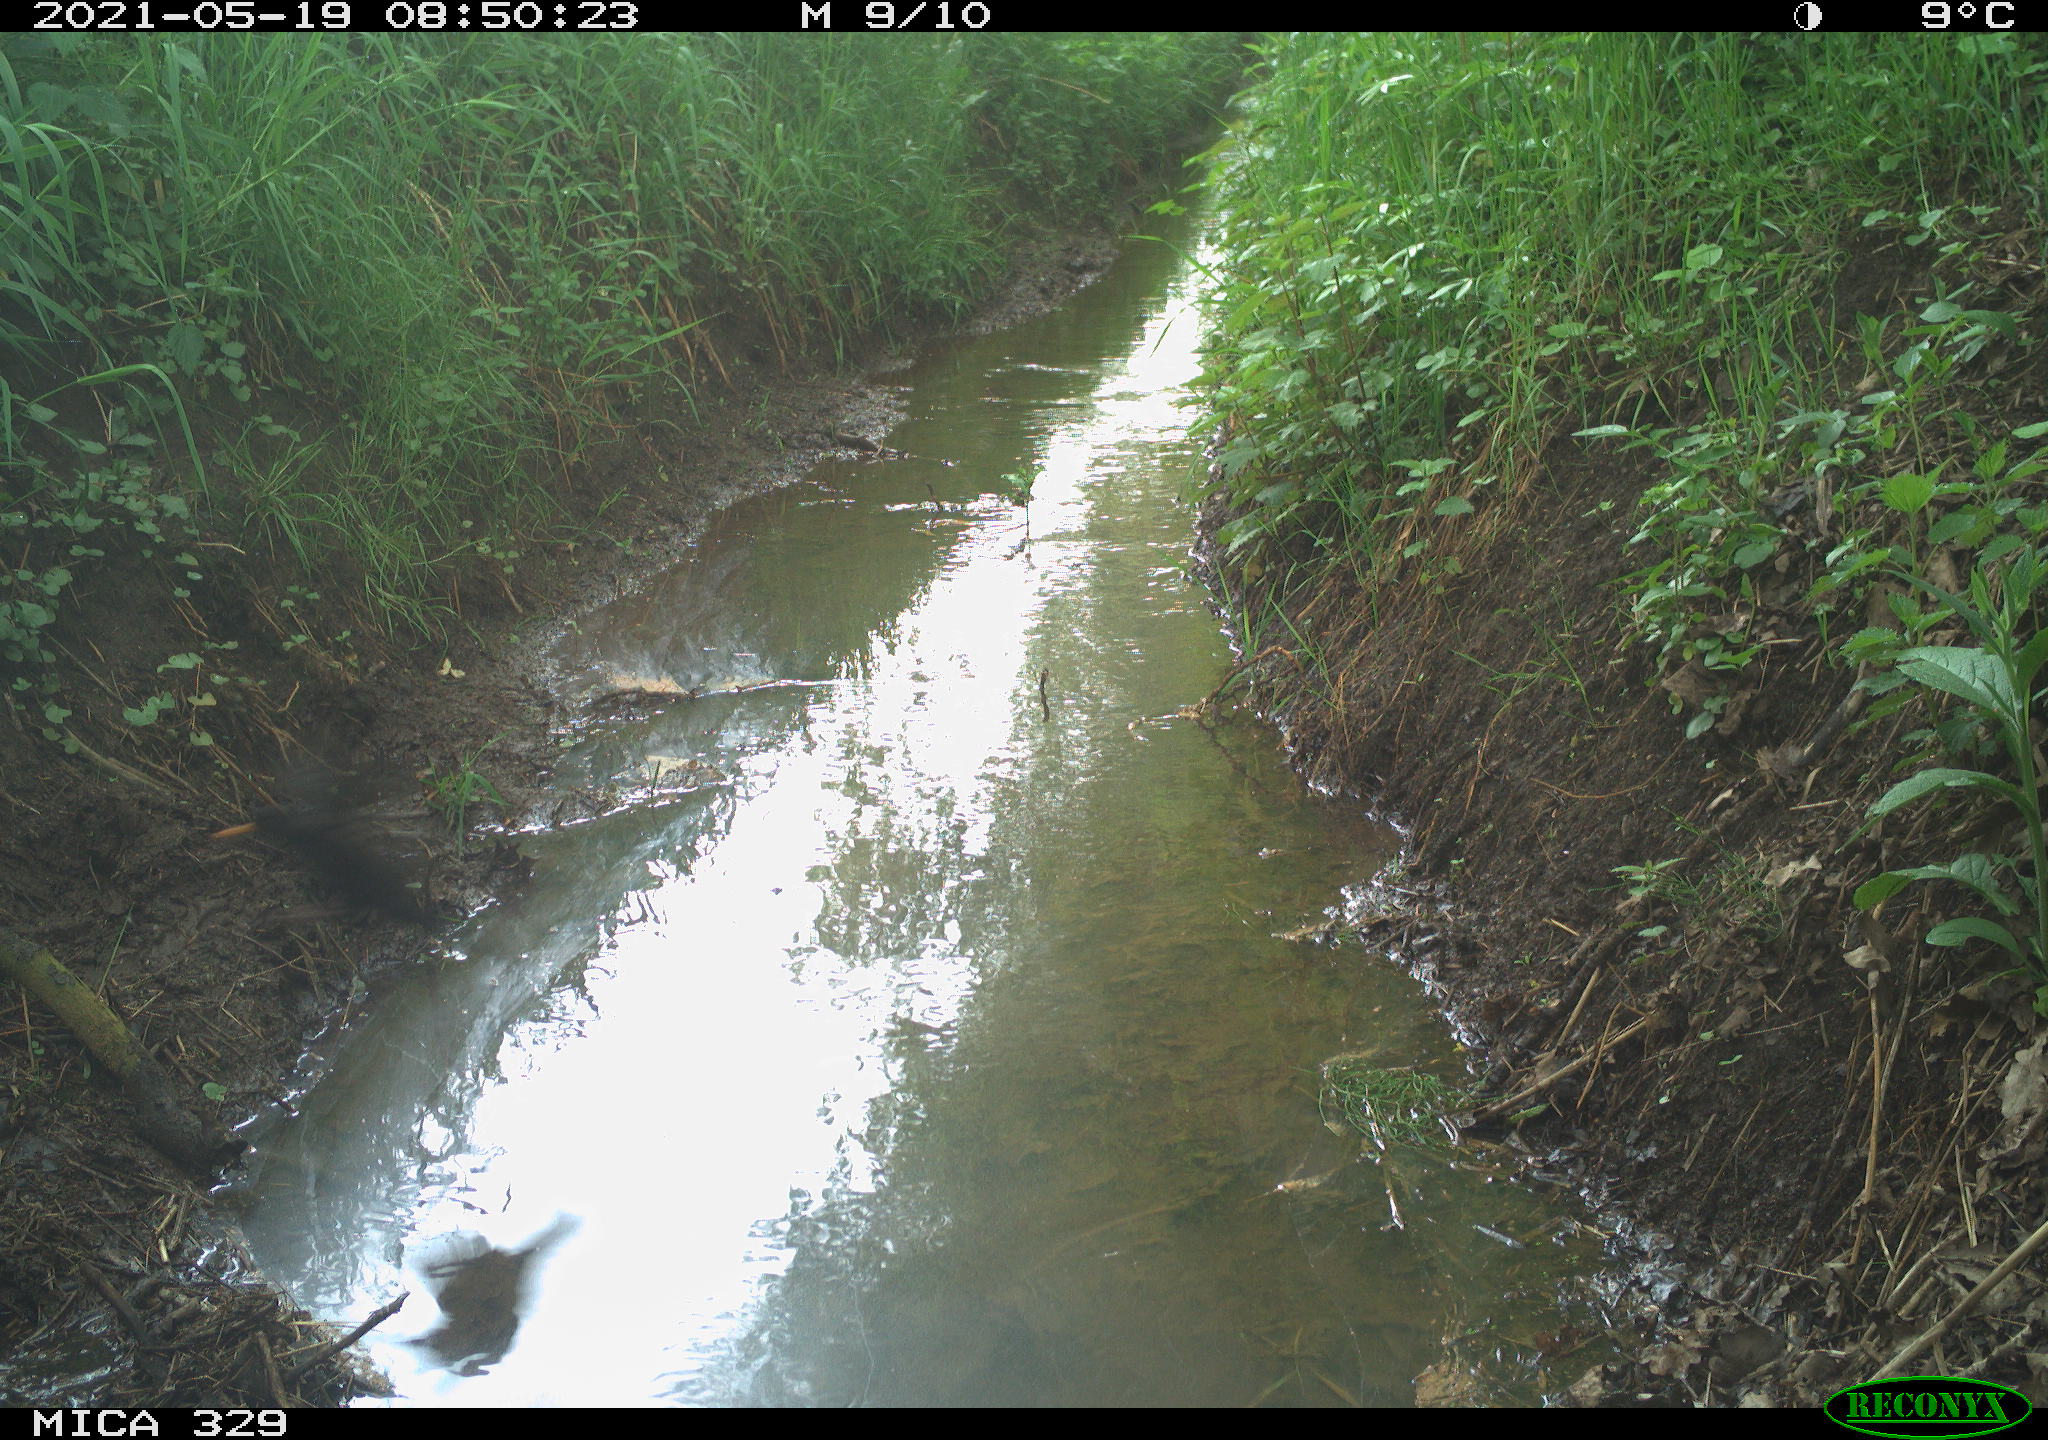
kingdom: Animalia
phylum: Chordata
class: Aves
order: Passeriformes
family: Turdidae
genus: Turdus
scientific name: Turdus merula
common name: Common blackbird
